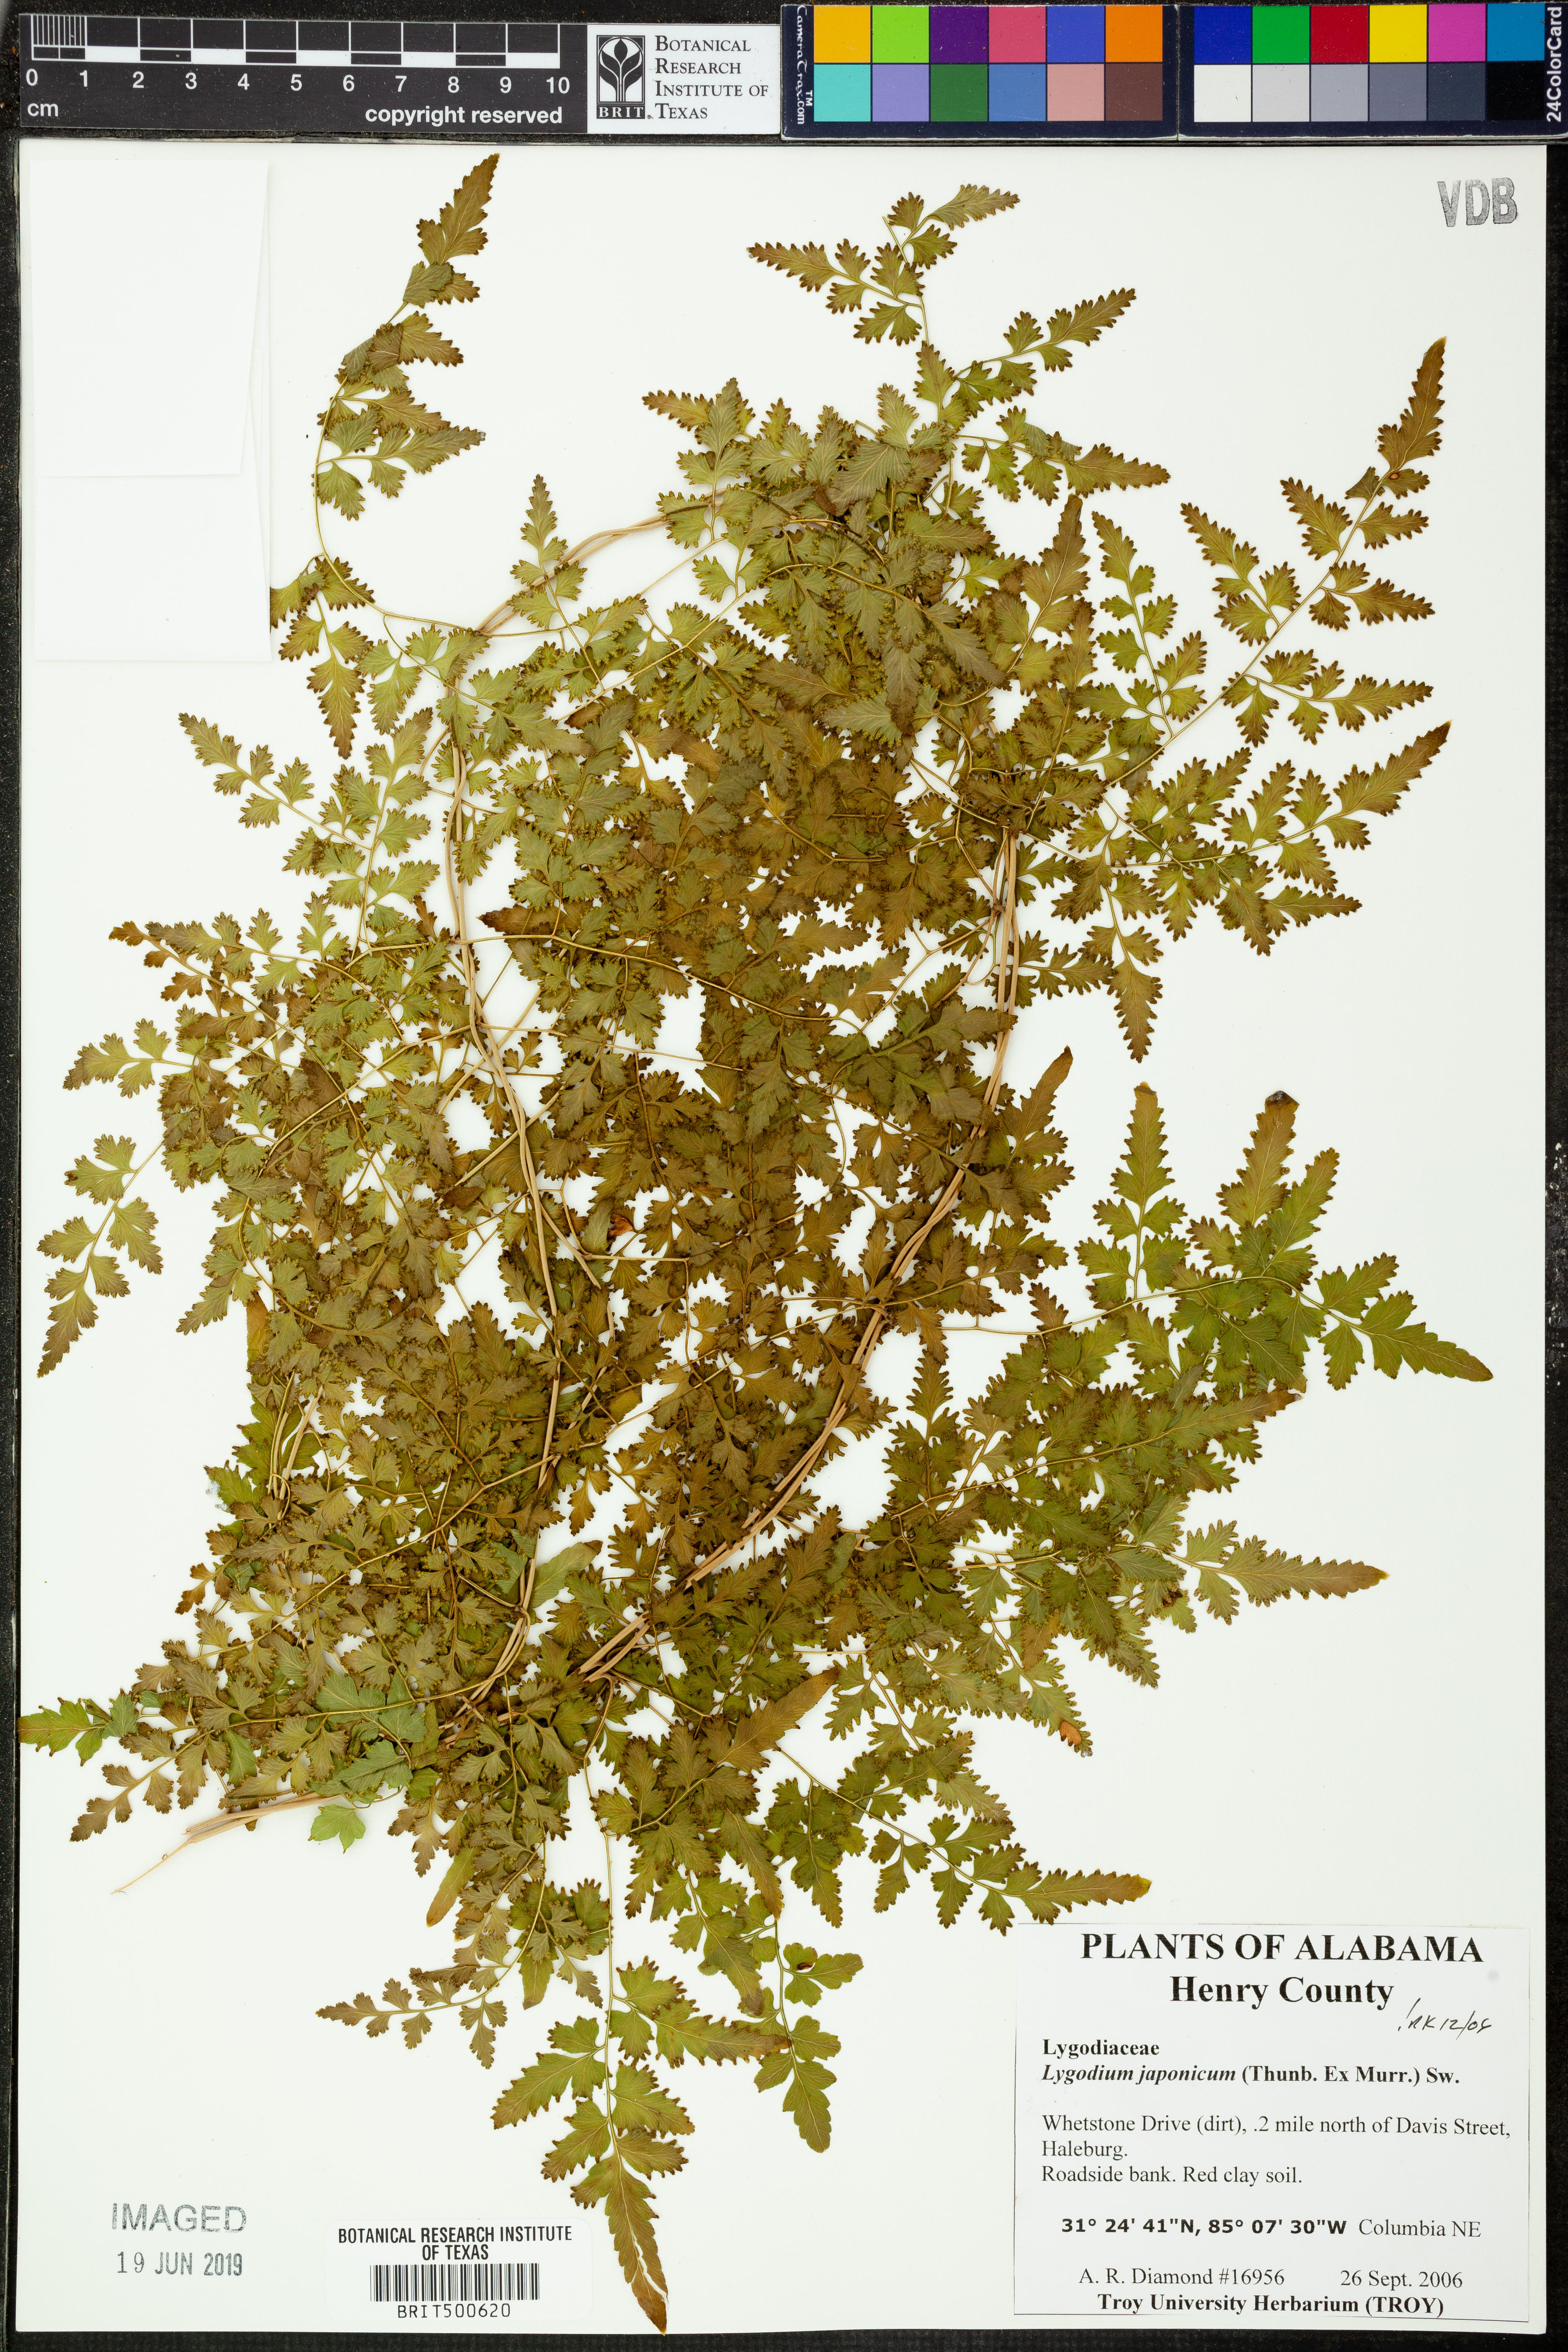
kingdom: Plantae
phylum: Tracheophyta
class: Polypodiopsida
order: Schizaeales
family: Lygodiaceae
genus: Lygodium
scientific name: Lygodium japonicum
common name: Japanese climbing fern
